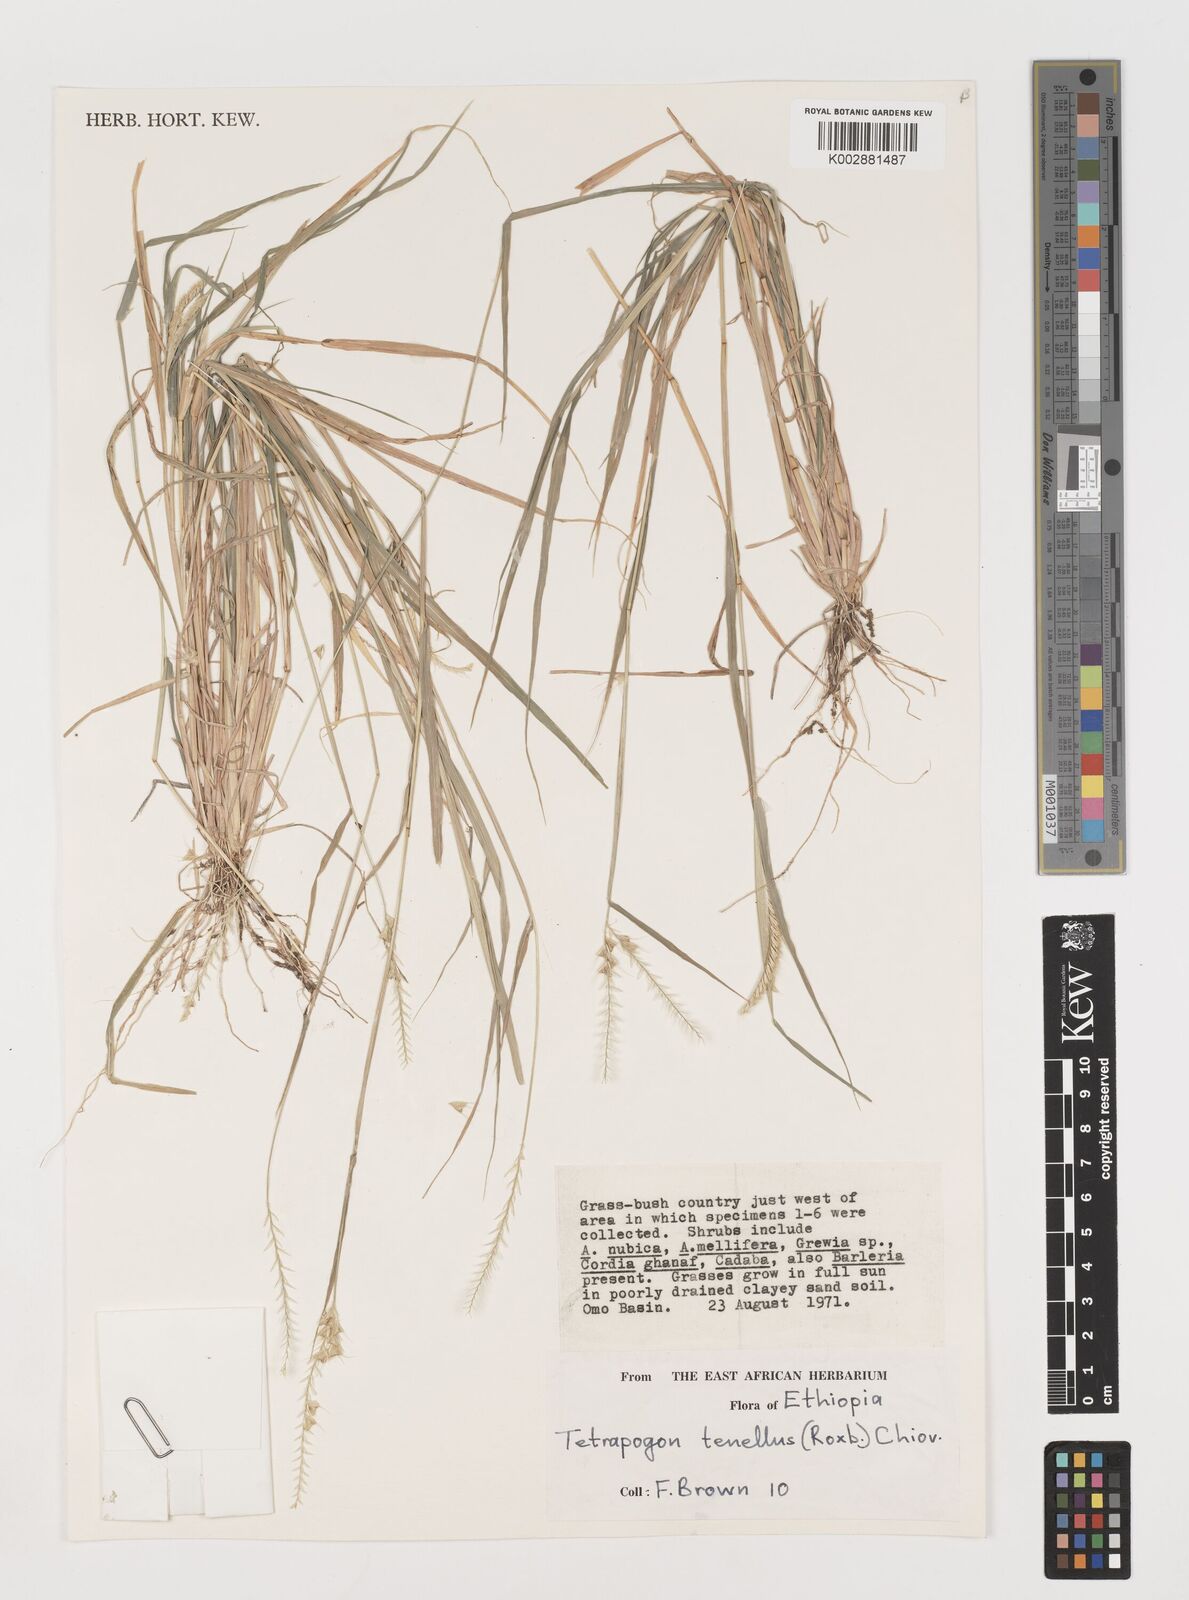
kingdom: Plantae
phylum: Tracheophyta
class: Liliopsida
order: Poales
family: Poaceae
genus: Tetrapogon
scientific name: Tetrapogon tenellus
